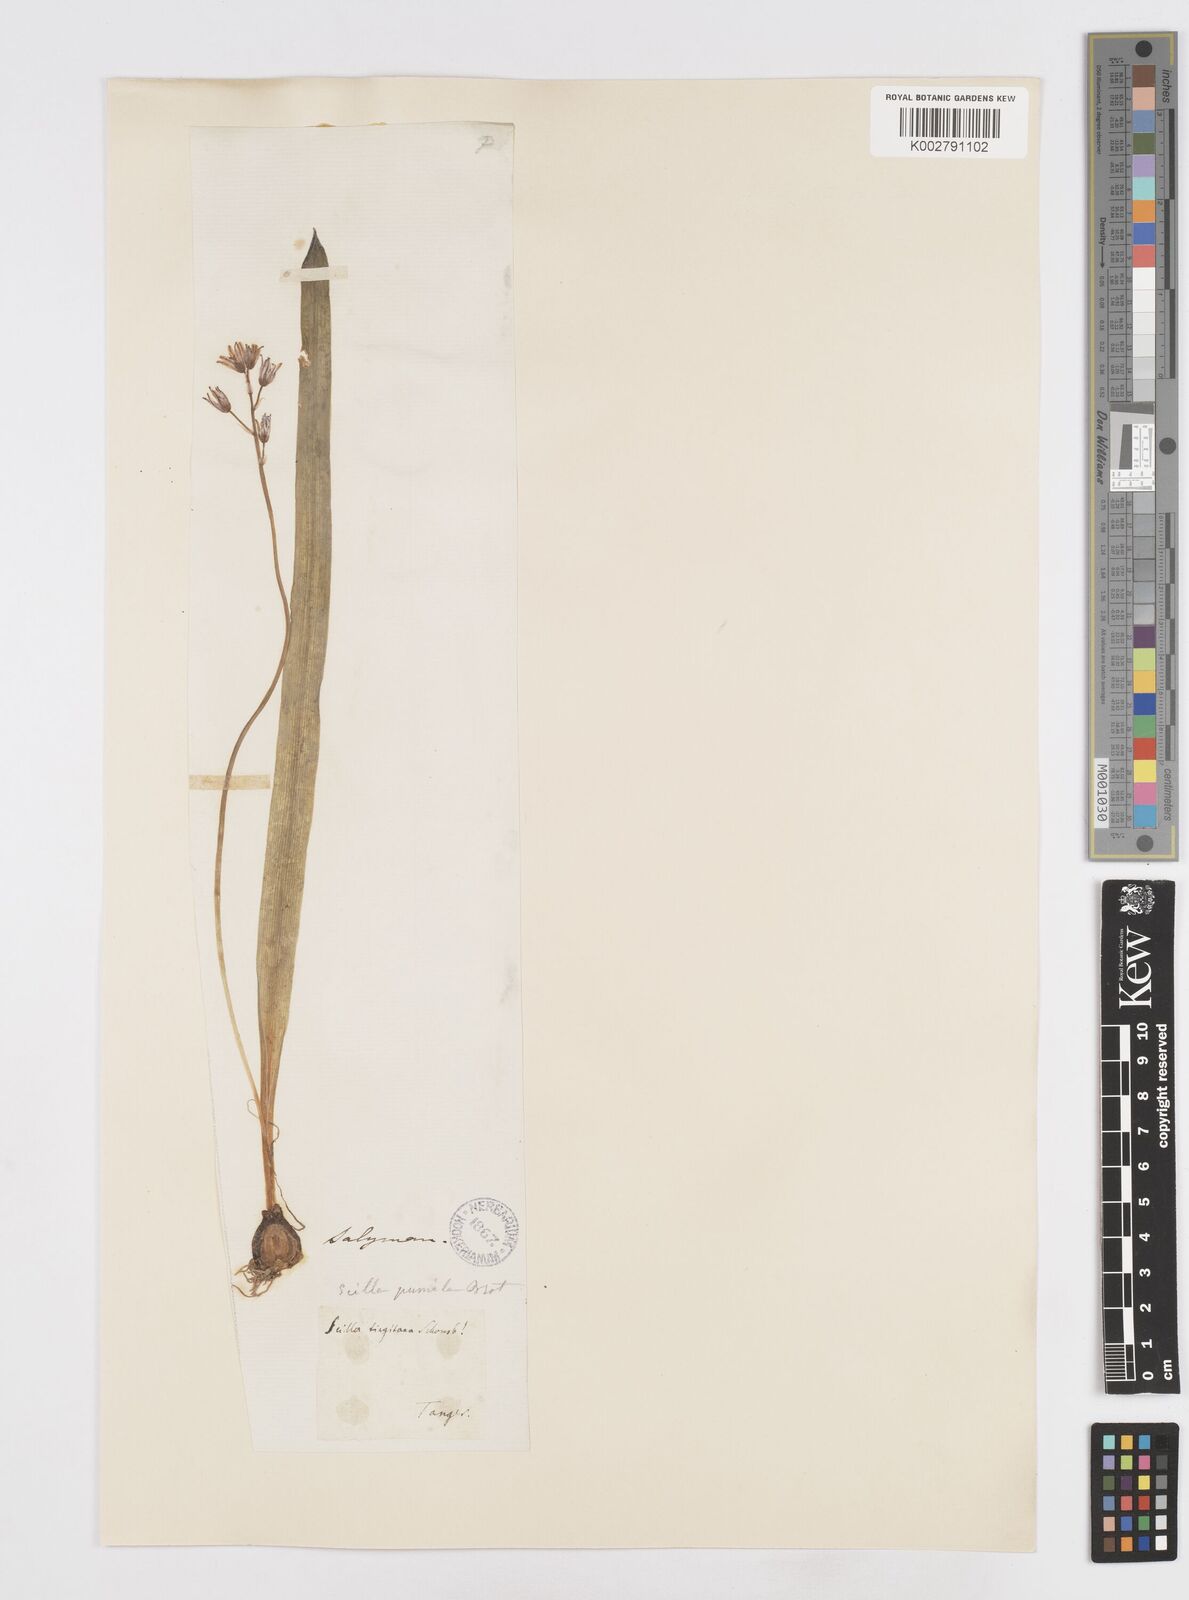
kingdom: Plantae
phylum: Tracheophyta
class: Liliopsida
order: Asparagales
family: Asparagaceae
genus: Scilla
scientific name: Scilla monophyllos
